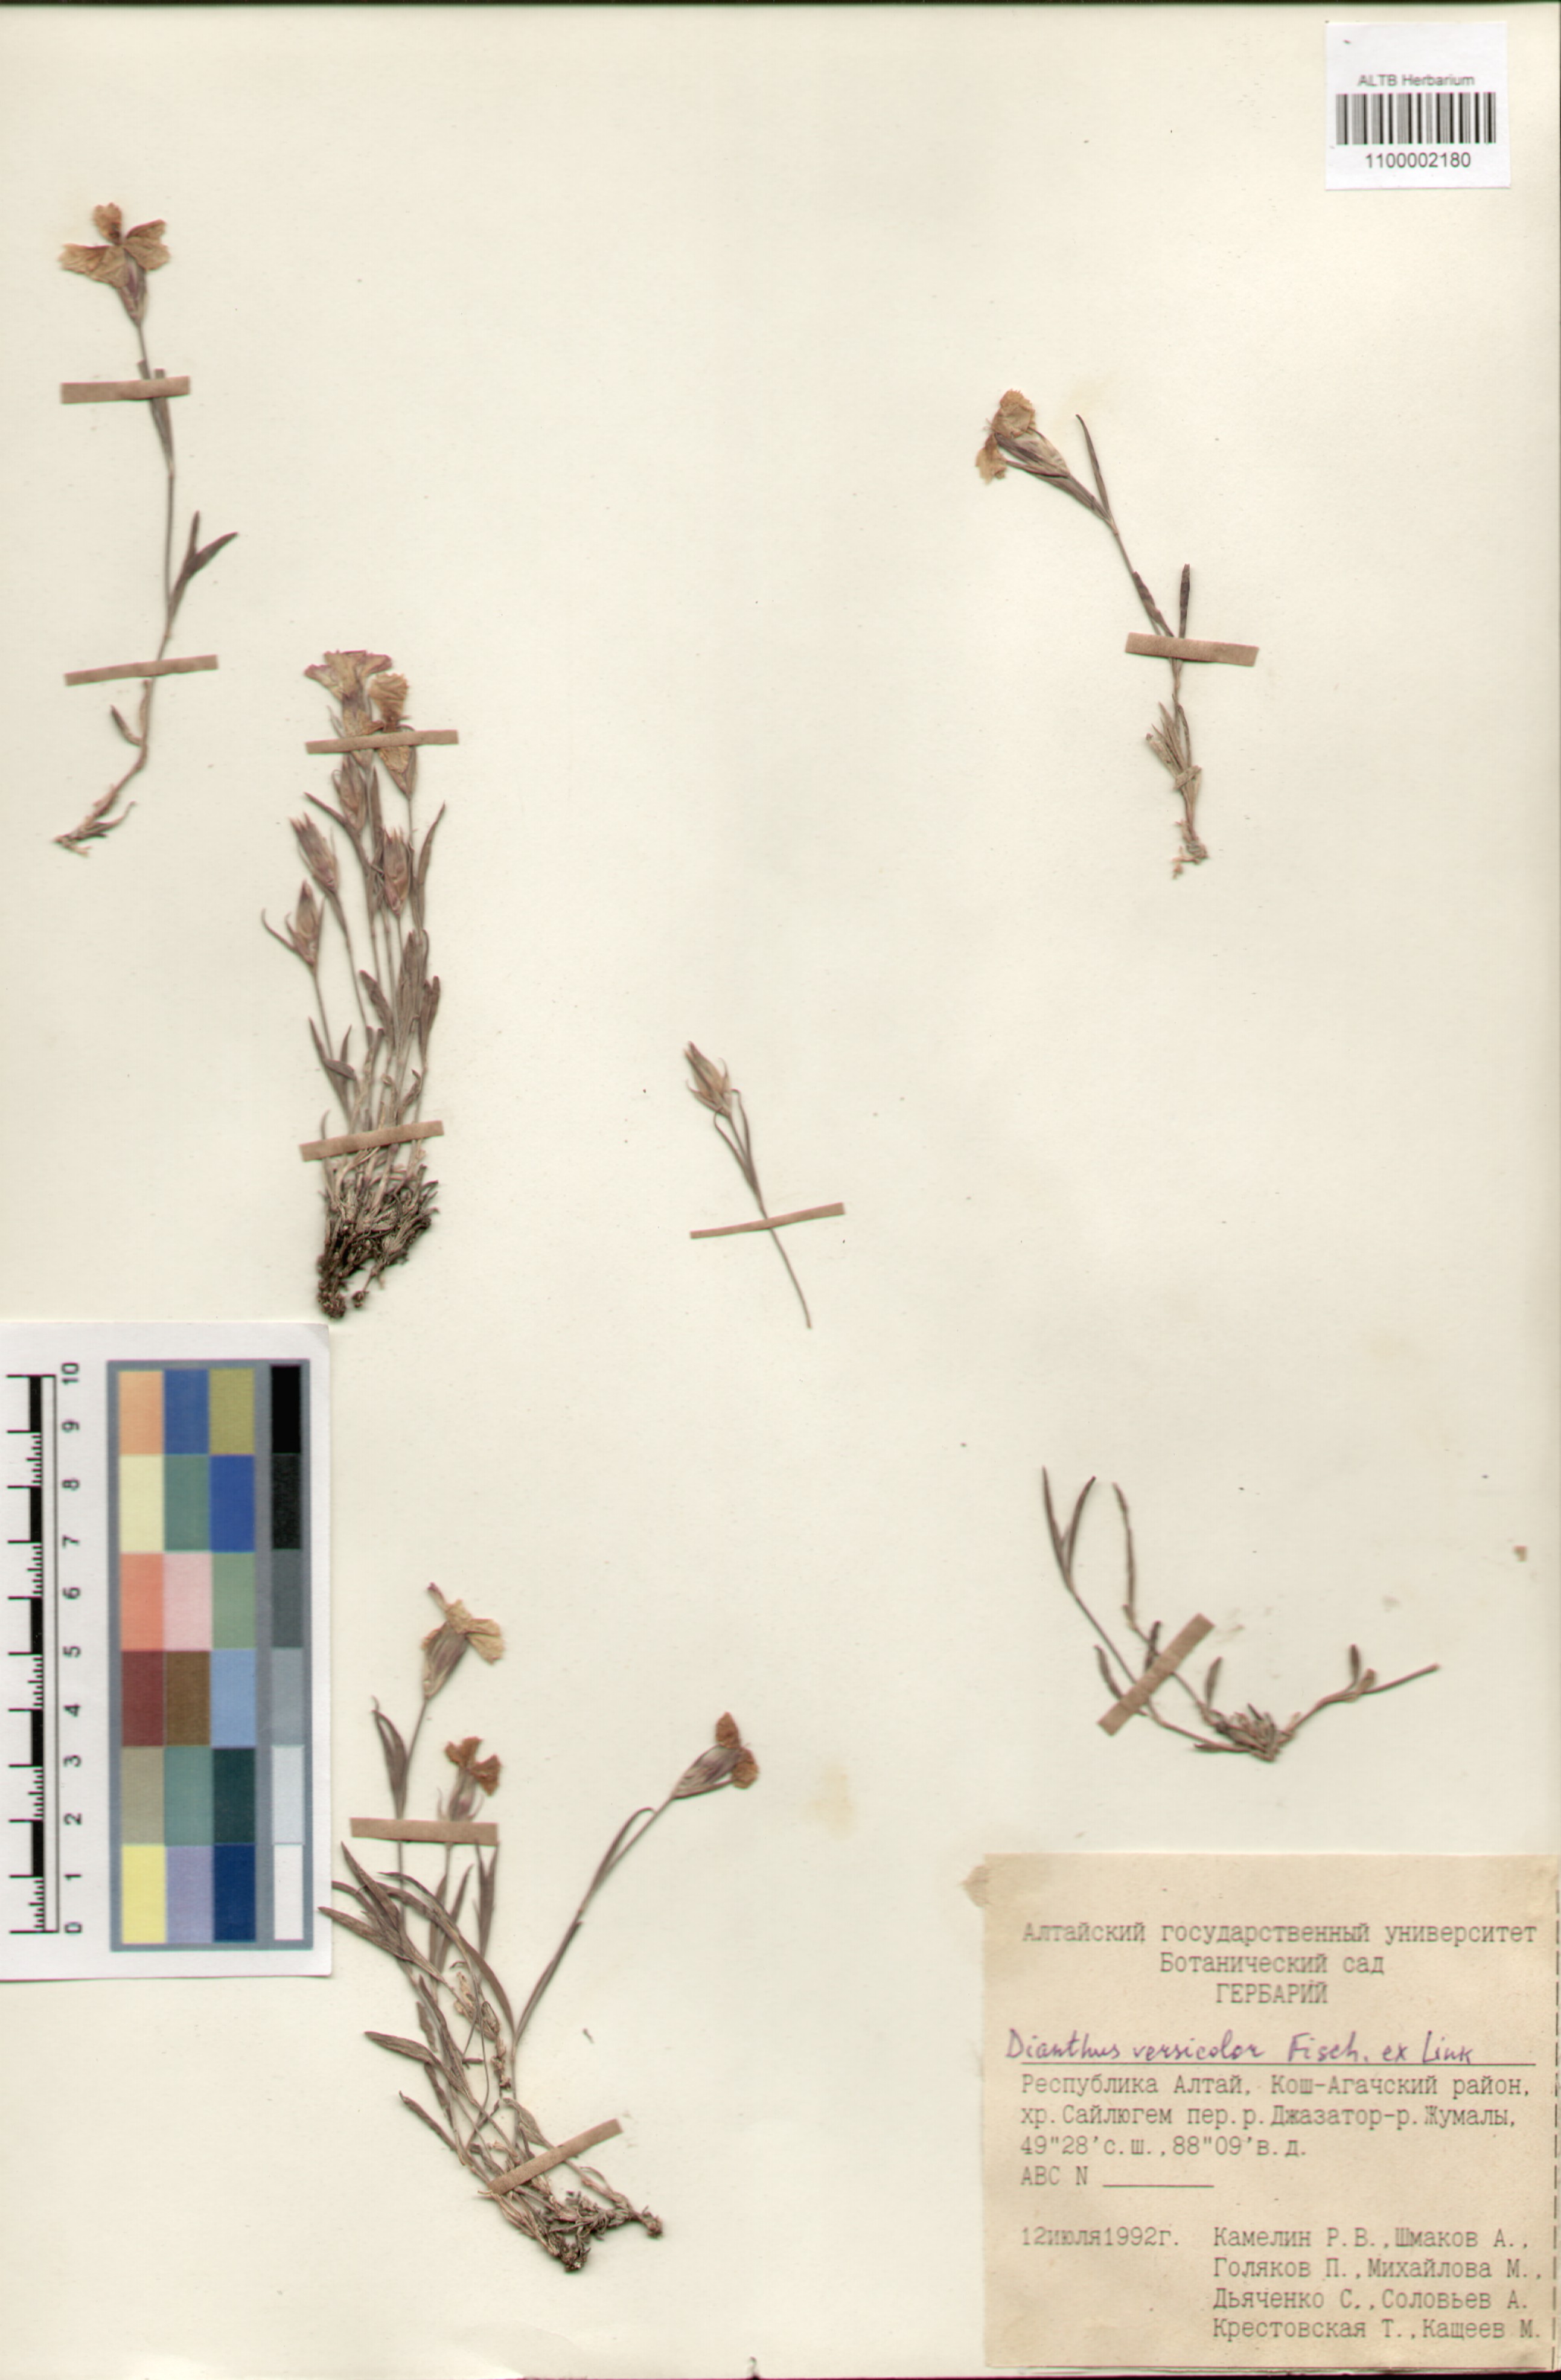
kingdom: Plantae
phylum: Tracheophyta
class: Magnoliopsida
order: Caryophyllales
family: Caryophyllaceae
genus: Dianthus
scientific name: Dianthus chinensis
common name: Rainbow pink
